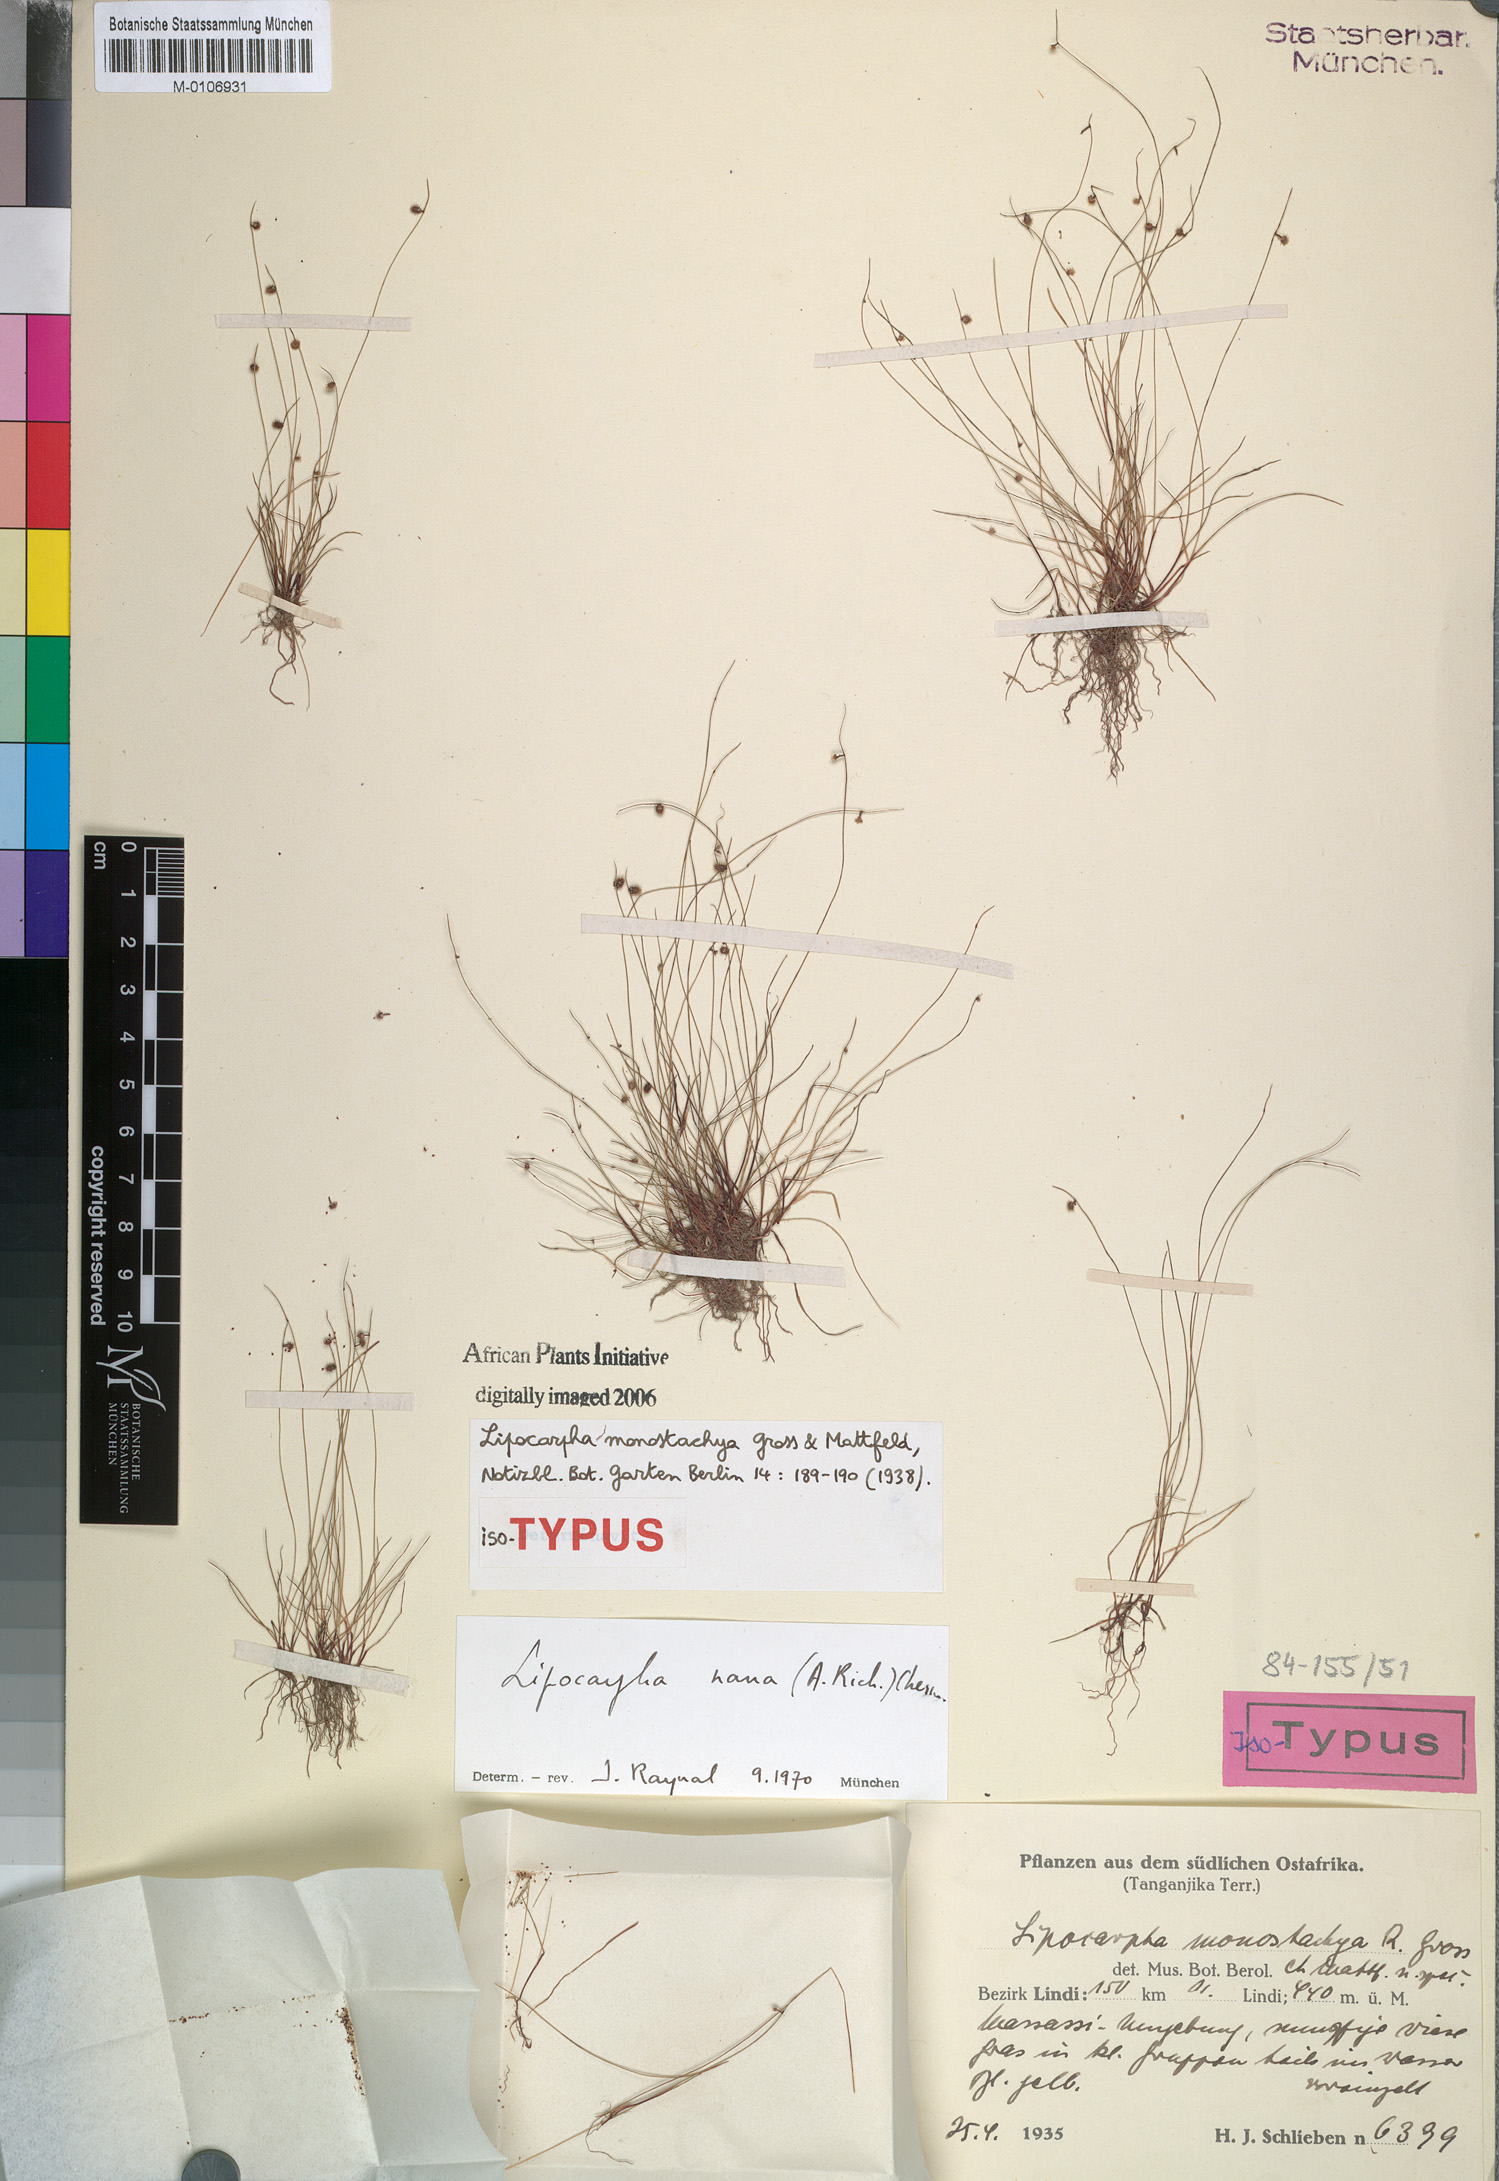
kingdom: Plantae
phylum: Tracheophyta
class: Liliopsida
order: Poales
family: Cyperaceae
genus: Cyperus
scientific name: Cyperus persquarrosus
